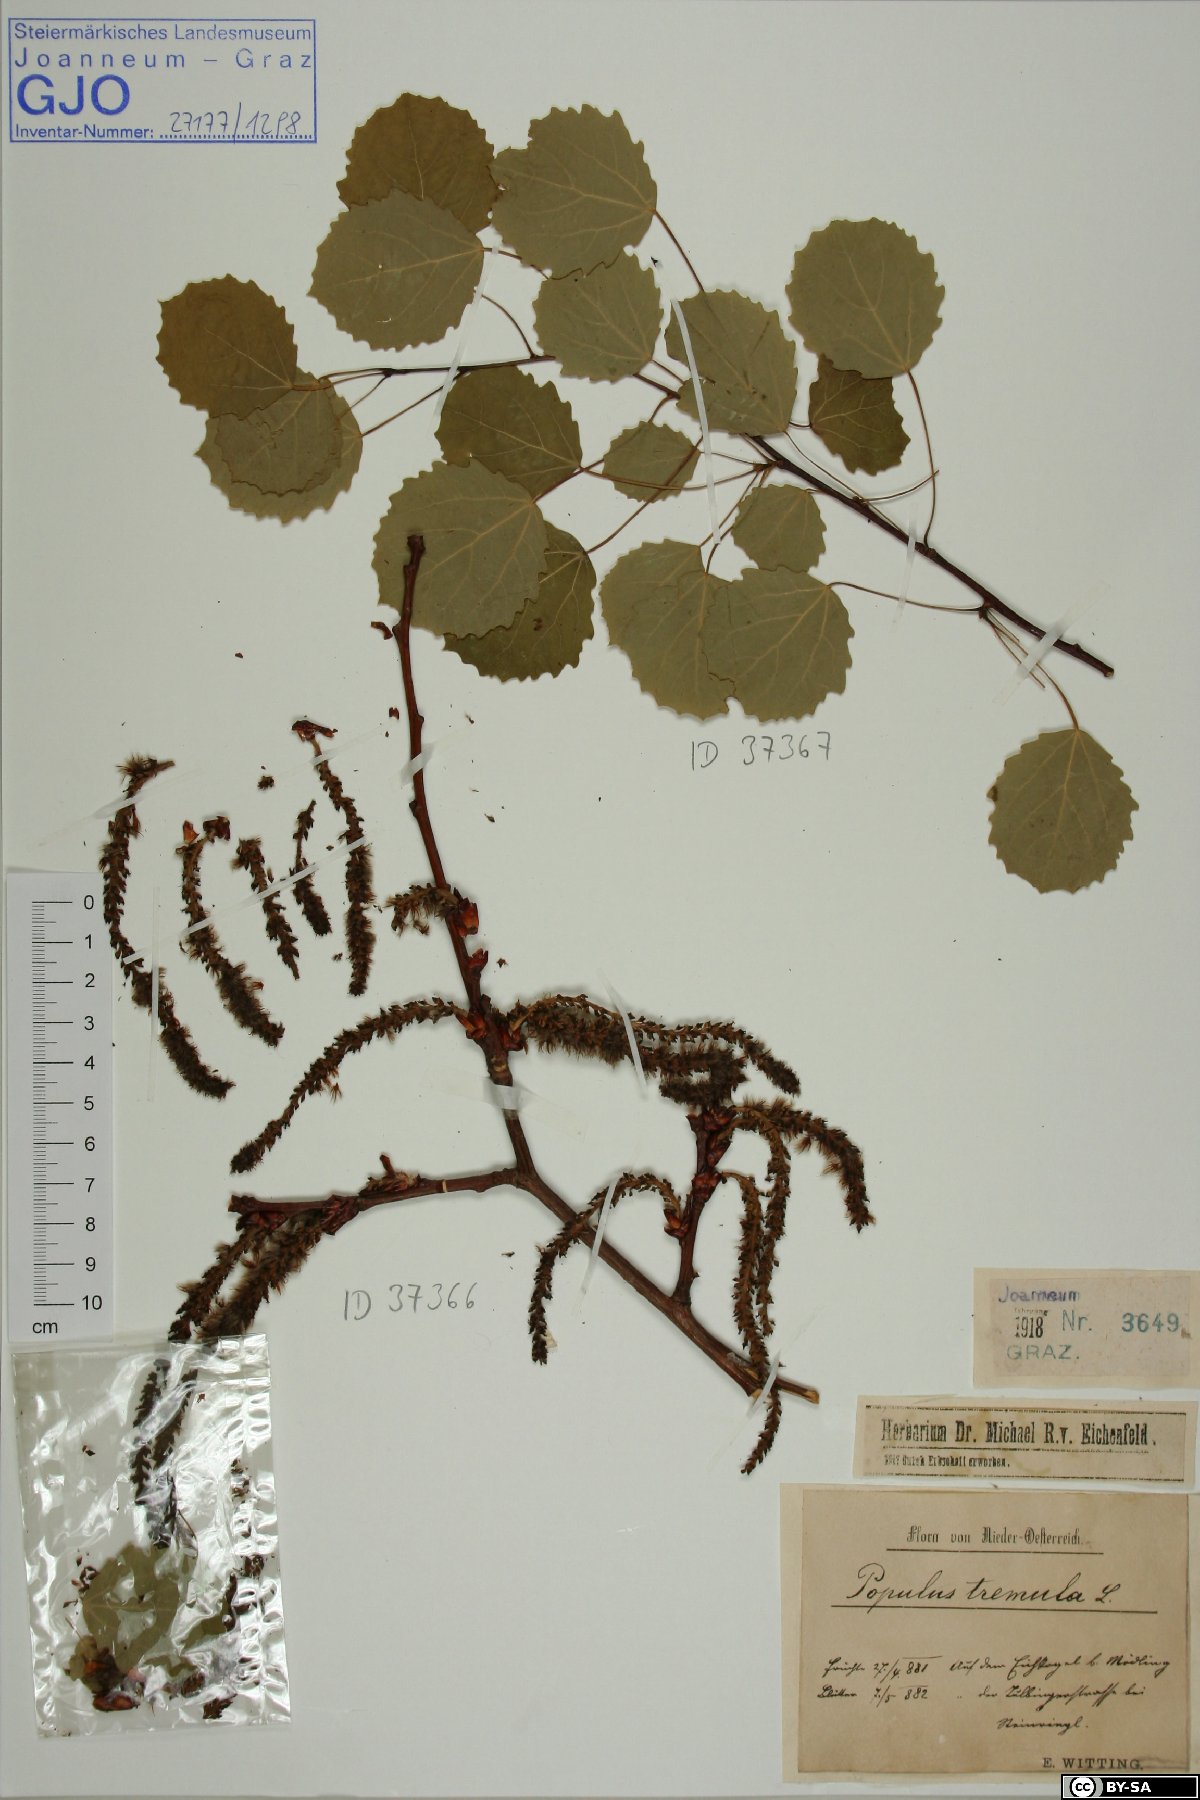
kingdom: Plantae
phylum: Tracheophyta
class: Magnoliopsida
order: Malpighiales
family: Salicaceae
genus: Populus
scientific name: Populus tremula
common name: European aspen
